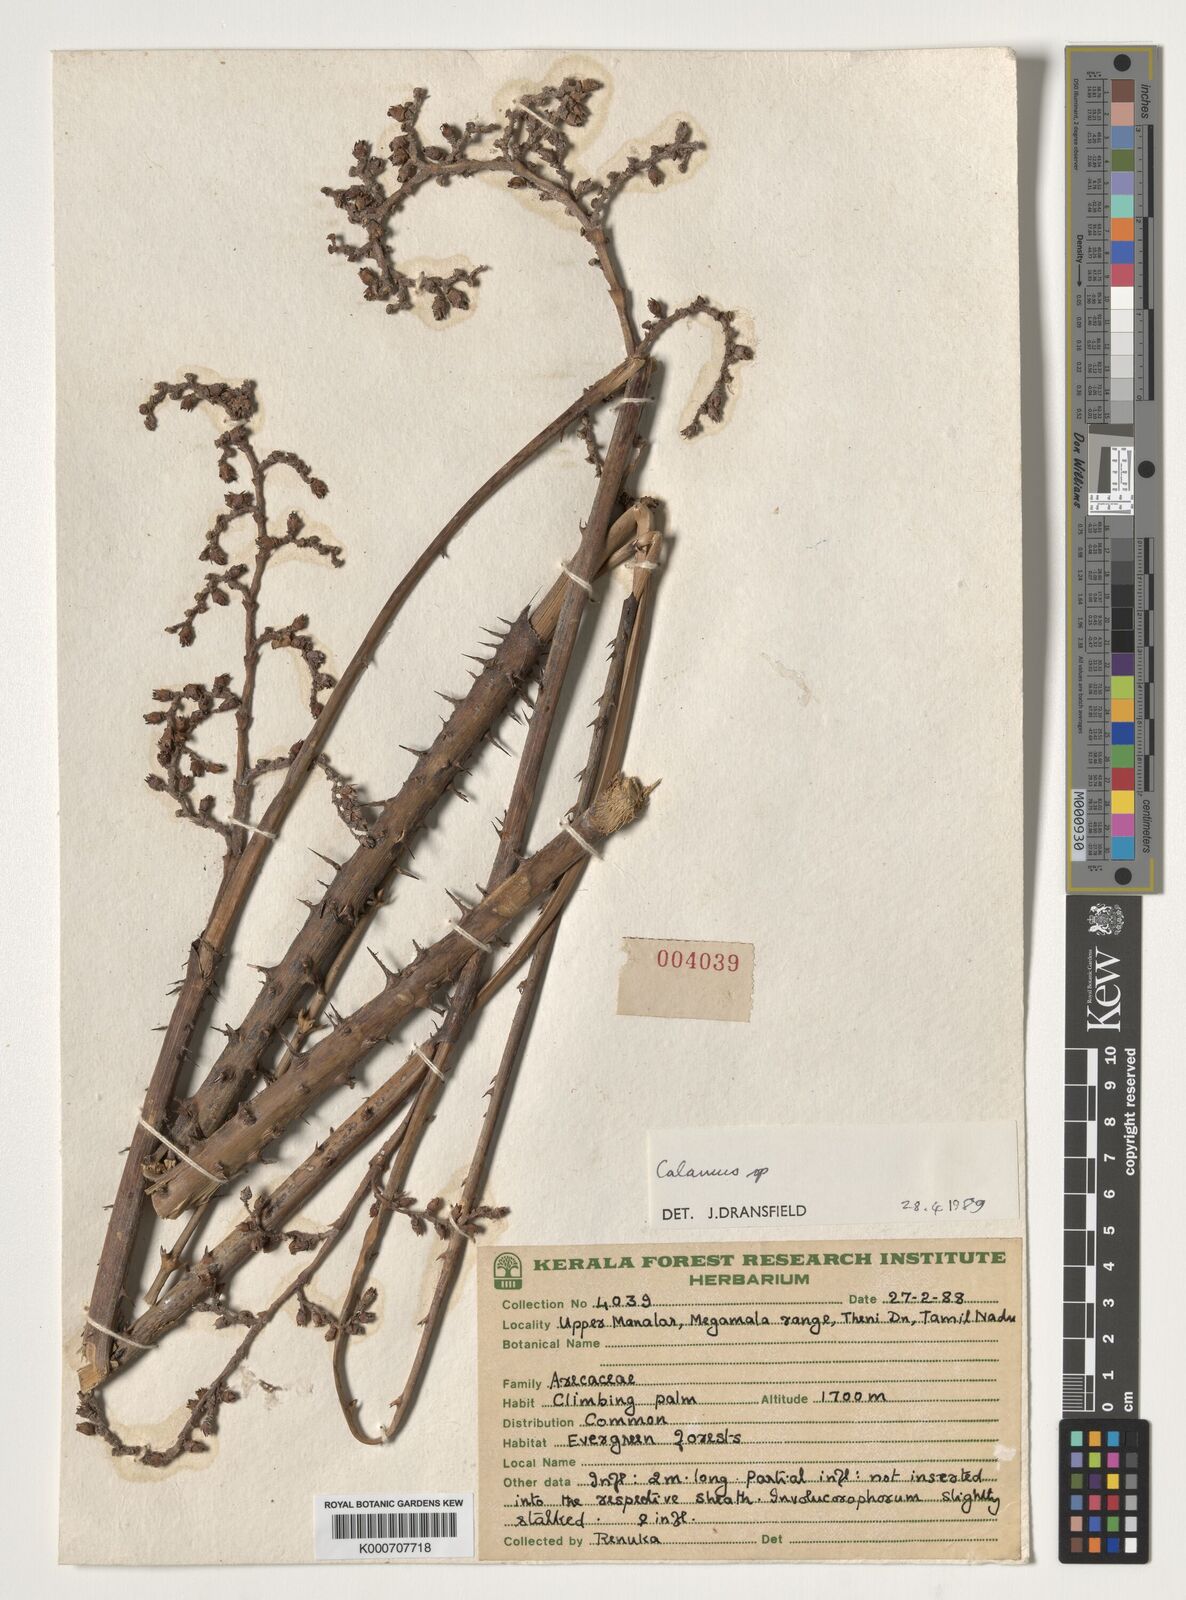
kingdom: Plantae
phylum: Tracheophyta
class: Liliopsida
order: Arecales
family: Arecaceae
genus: Calamus
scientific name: Calamus
